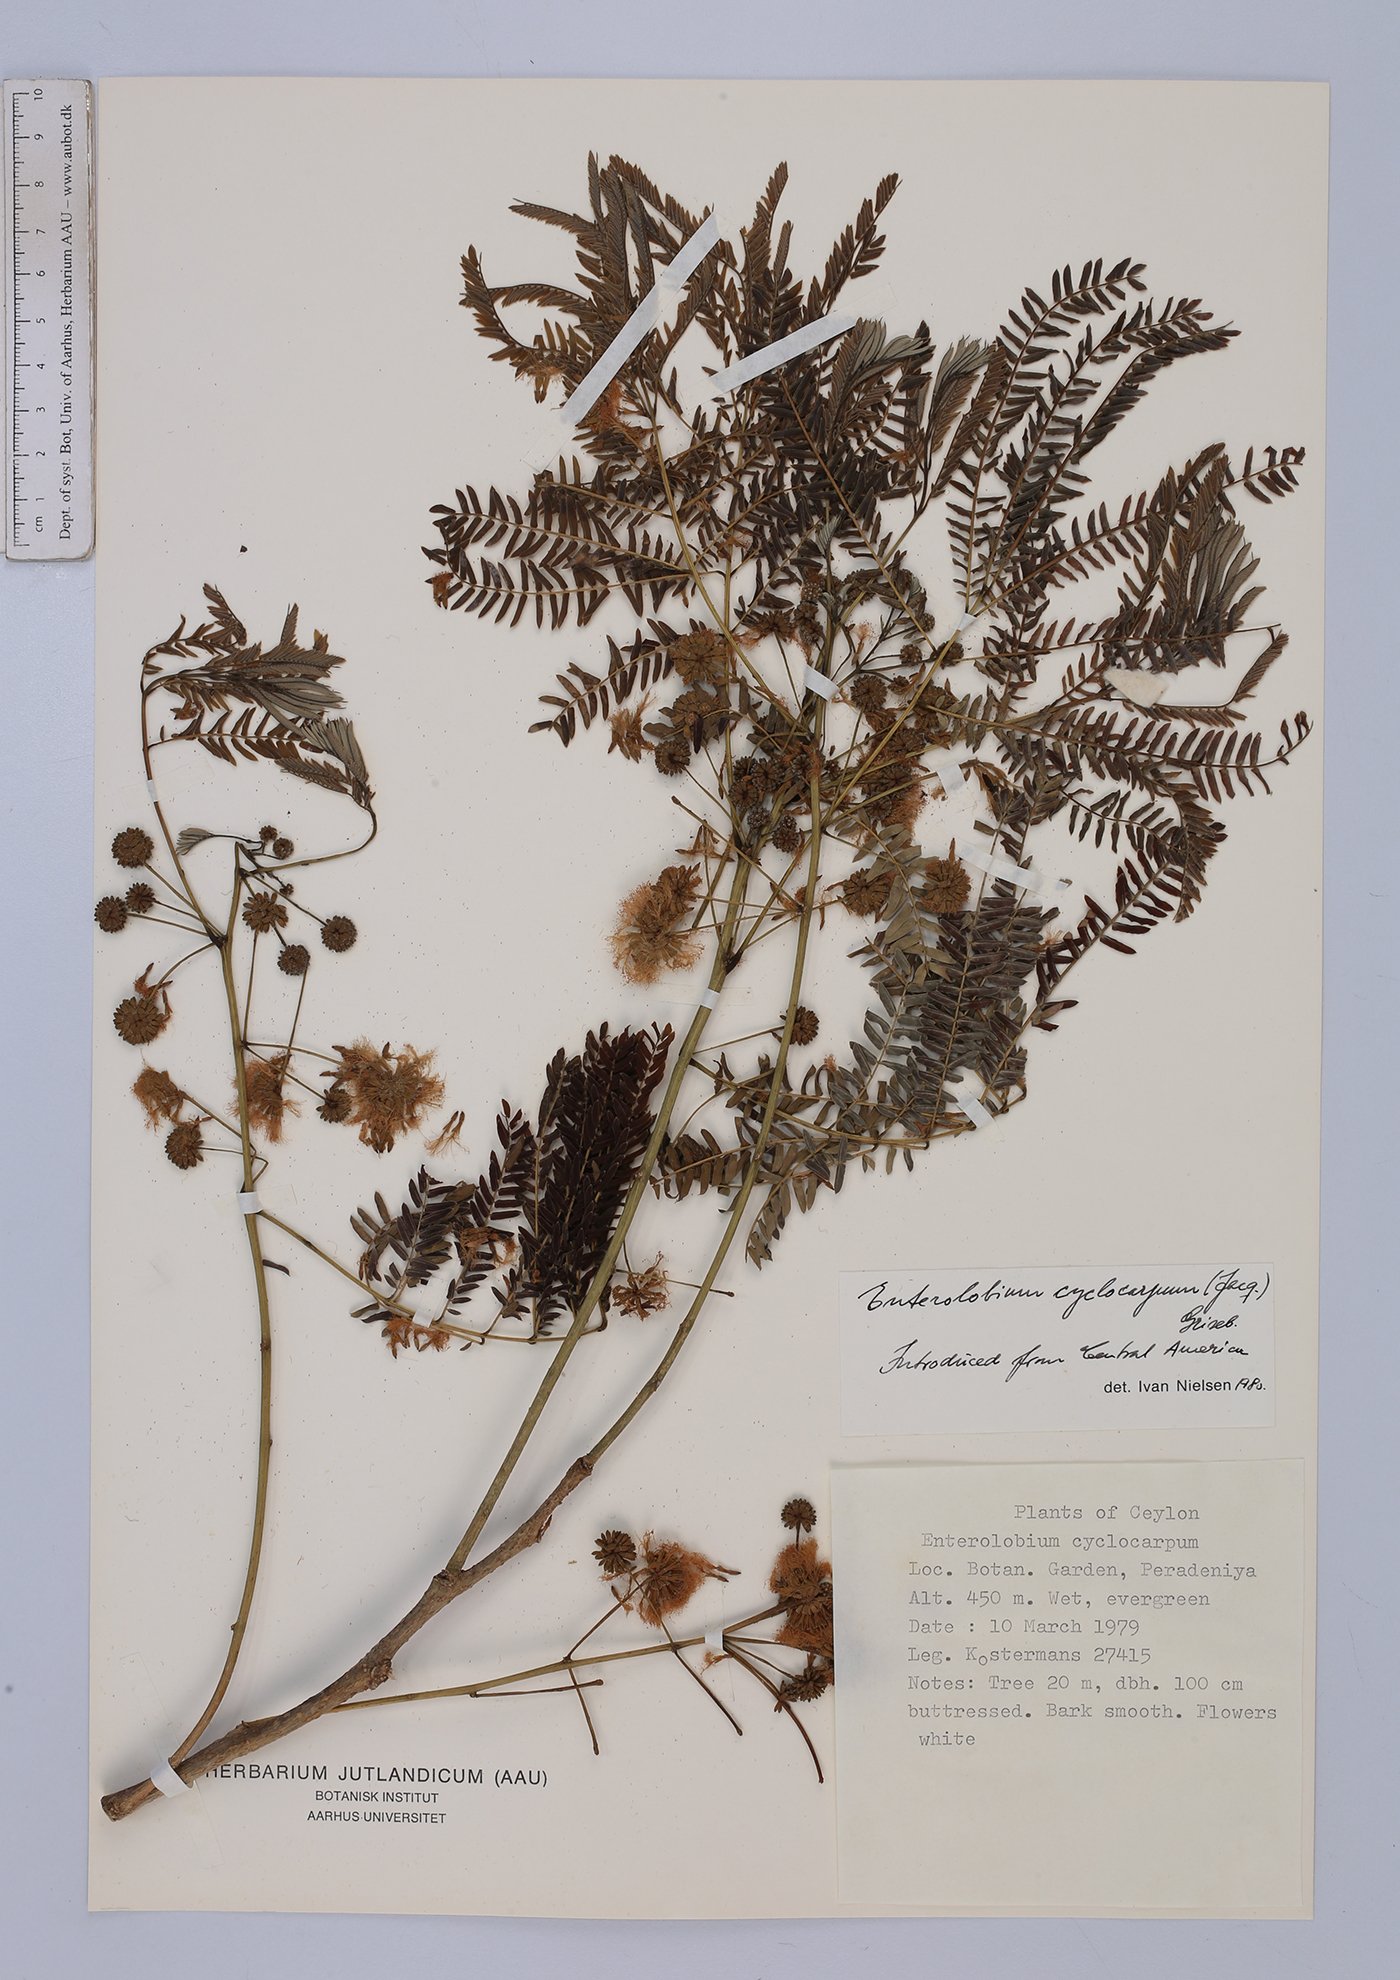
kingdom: Plantae
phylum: Tracheophyta
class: Magnoliopsida
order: Fabales
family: Fabaceae
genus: Enterolobium
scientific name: Enterolobium cyclocarpum
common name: Ear tree
